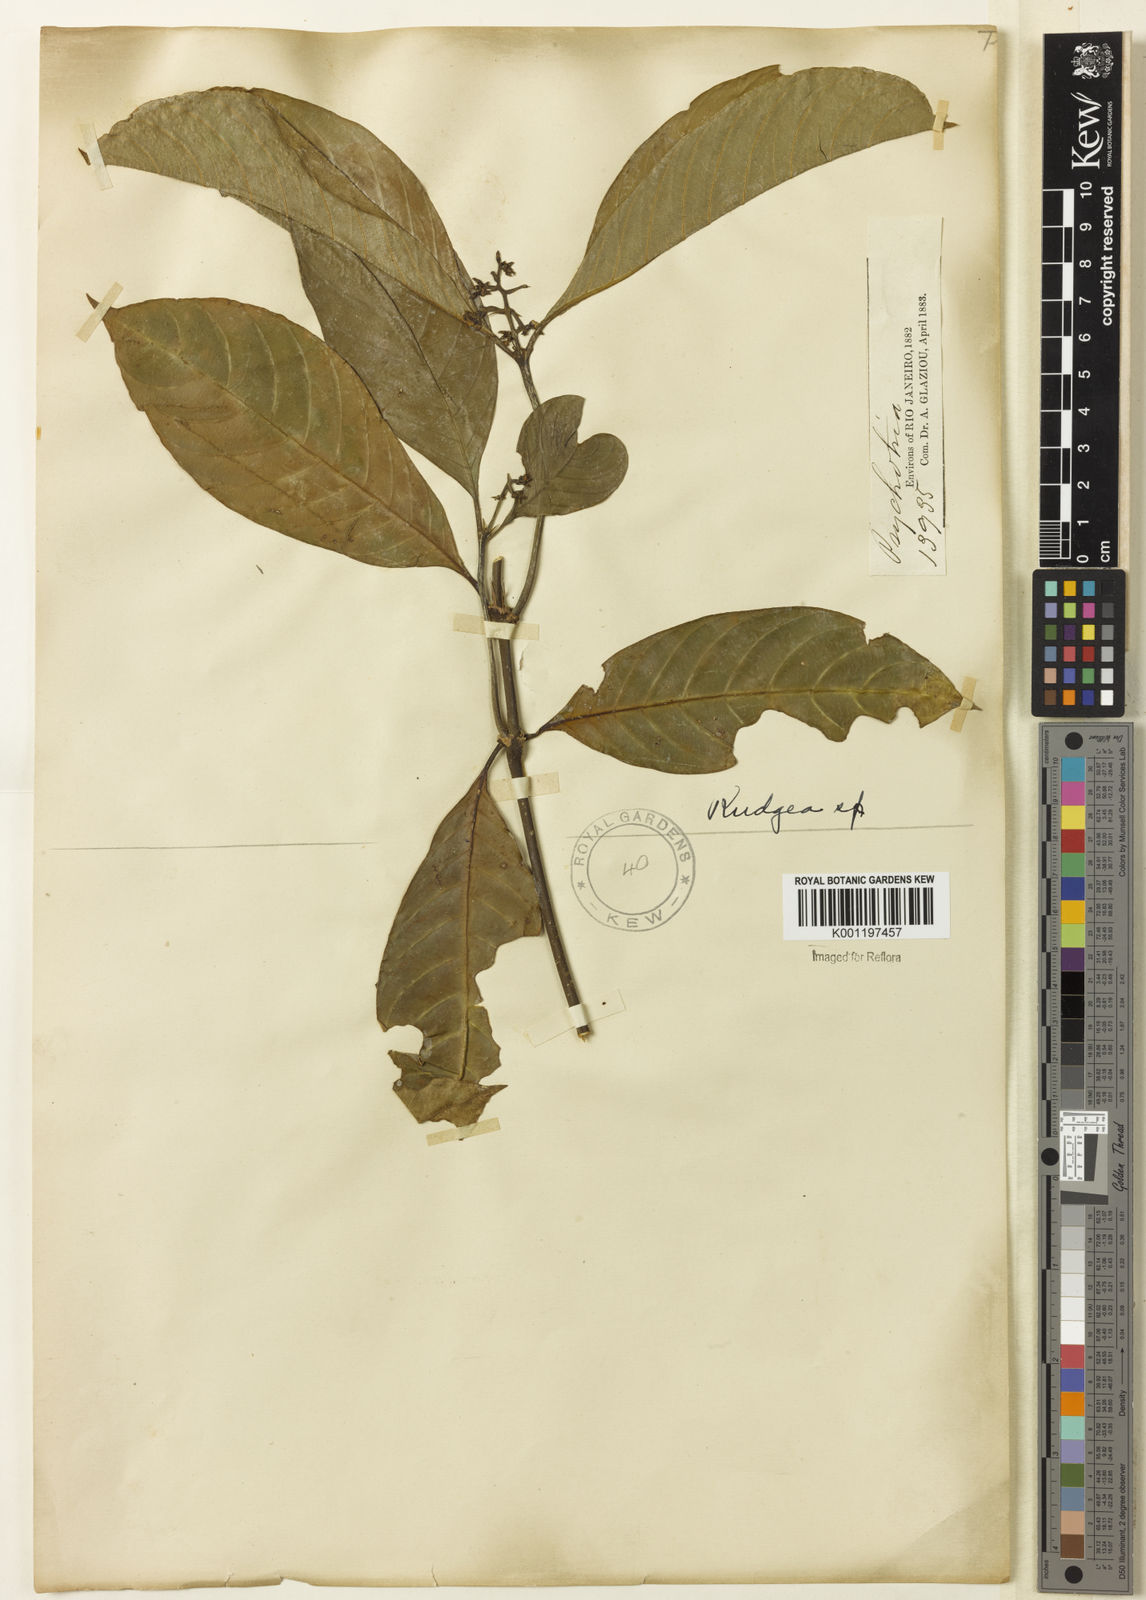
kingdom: Plantae
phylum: Tracheophyta
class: Magnoliopsida
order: Gentianales
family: Rubiaceae
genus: Palicourea
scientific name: Palicourea racemosa
